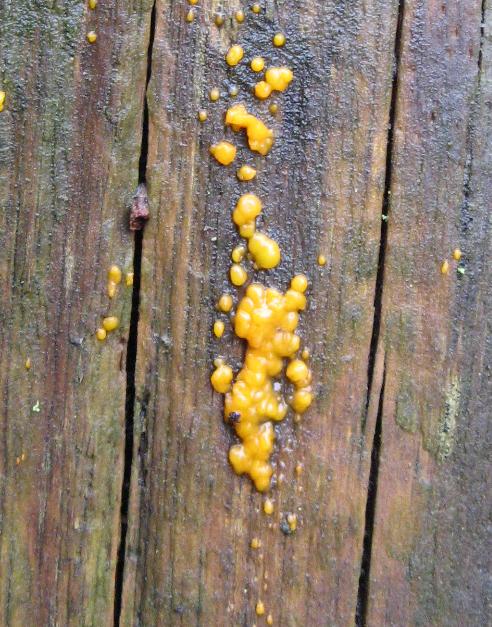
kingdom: Fungi
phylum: Basidiomycota
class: Dacrymycetes
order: Dacrymycetales
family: Dacrymycetaceae
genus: Dacrymyces
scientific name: Dacrymyces stillatus
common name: almindelig tåresvamp
